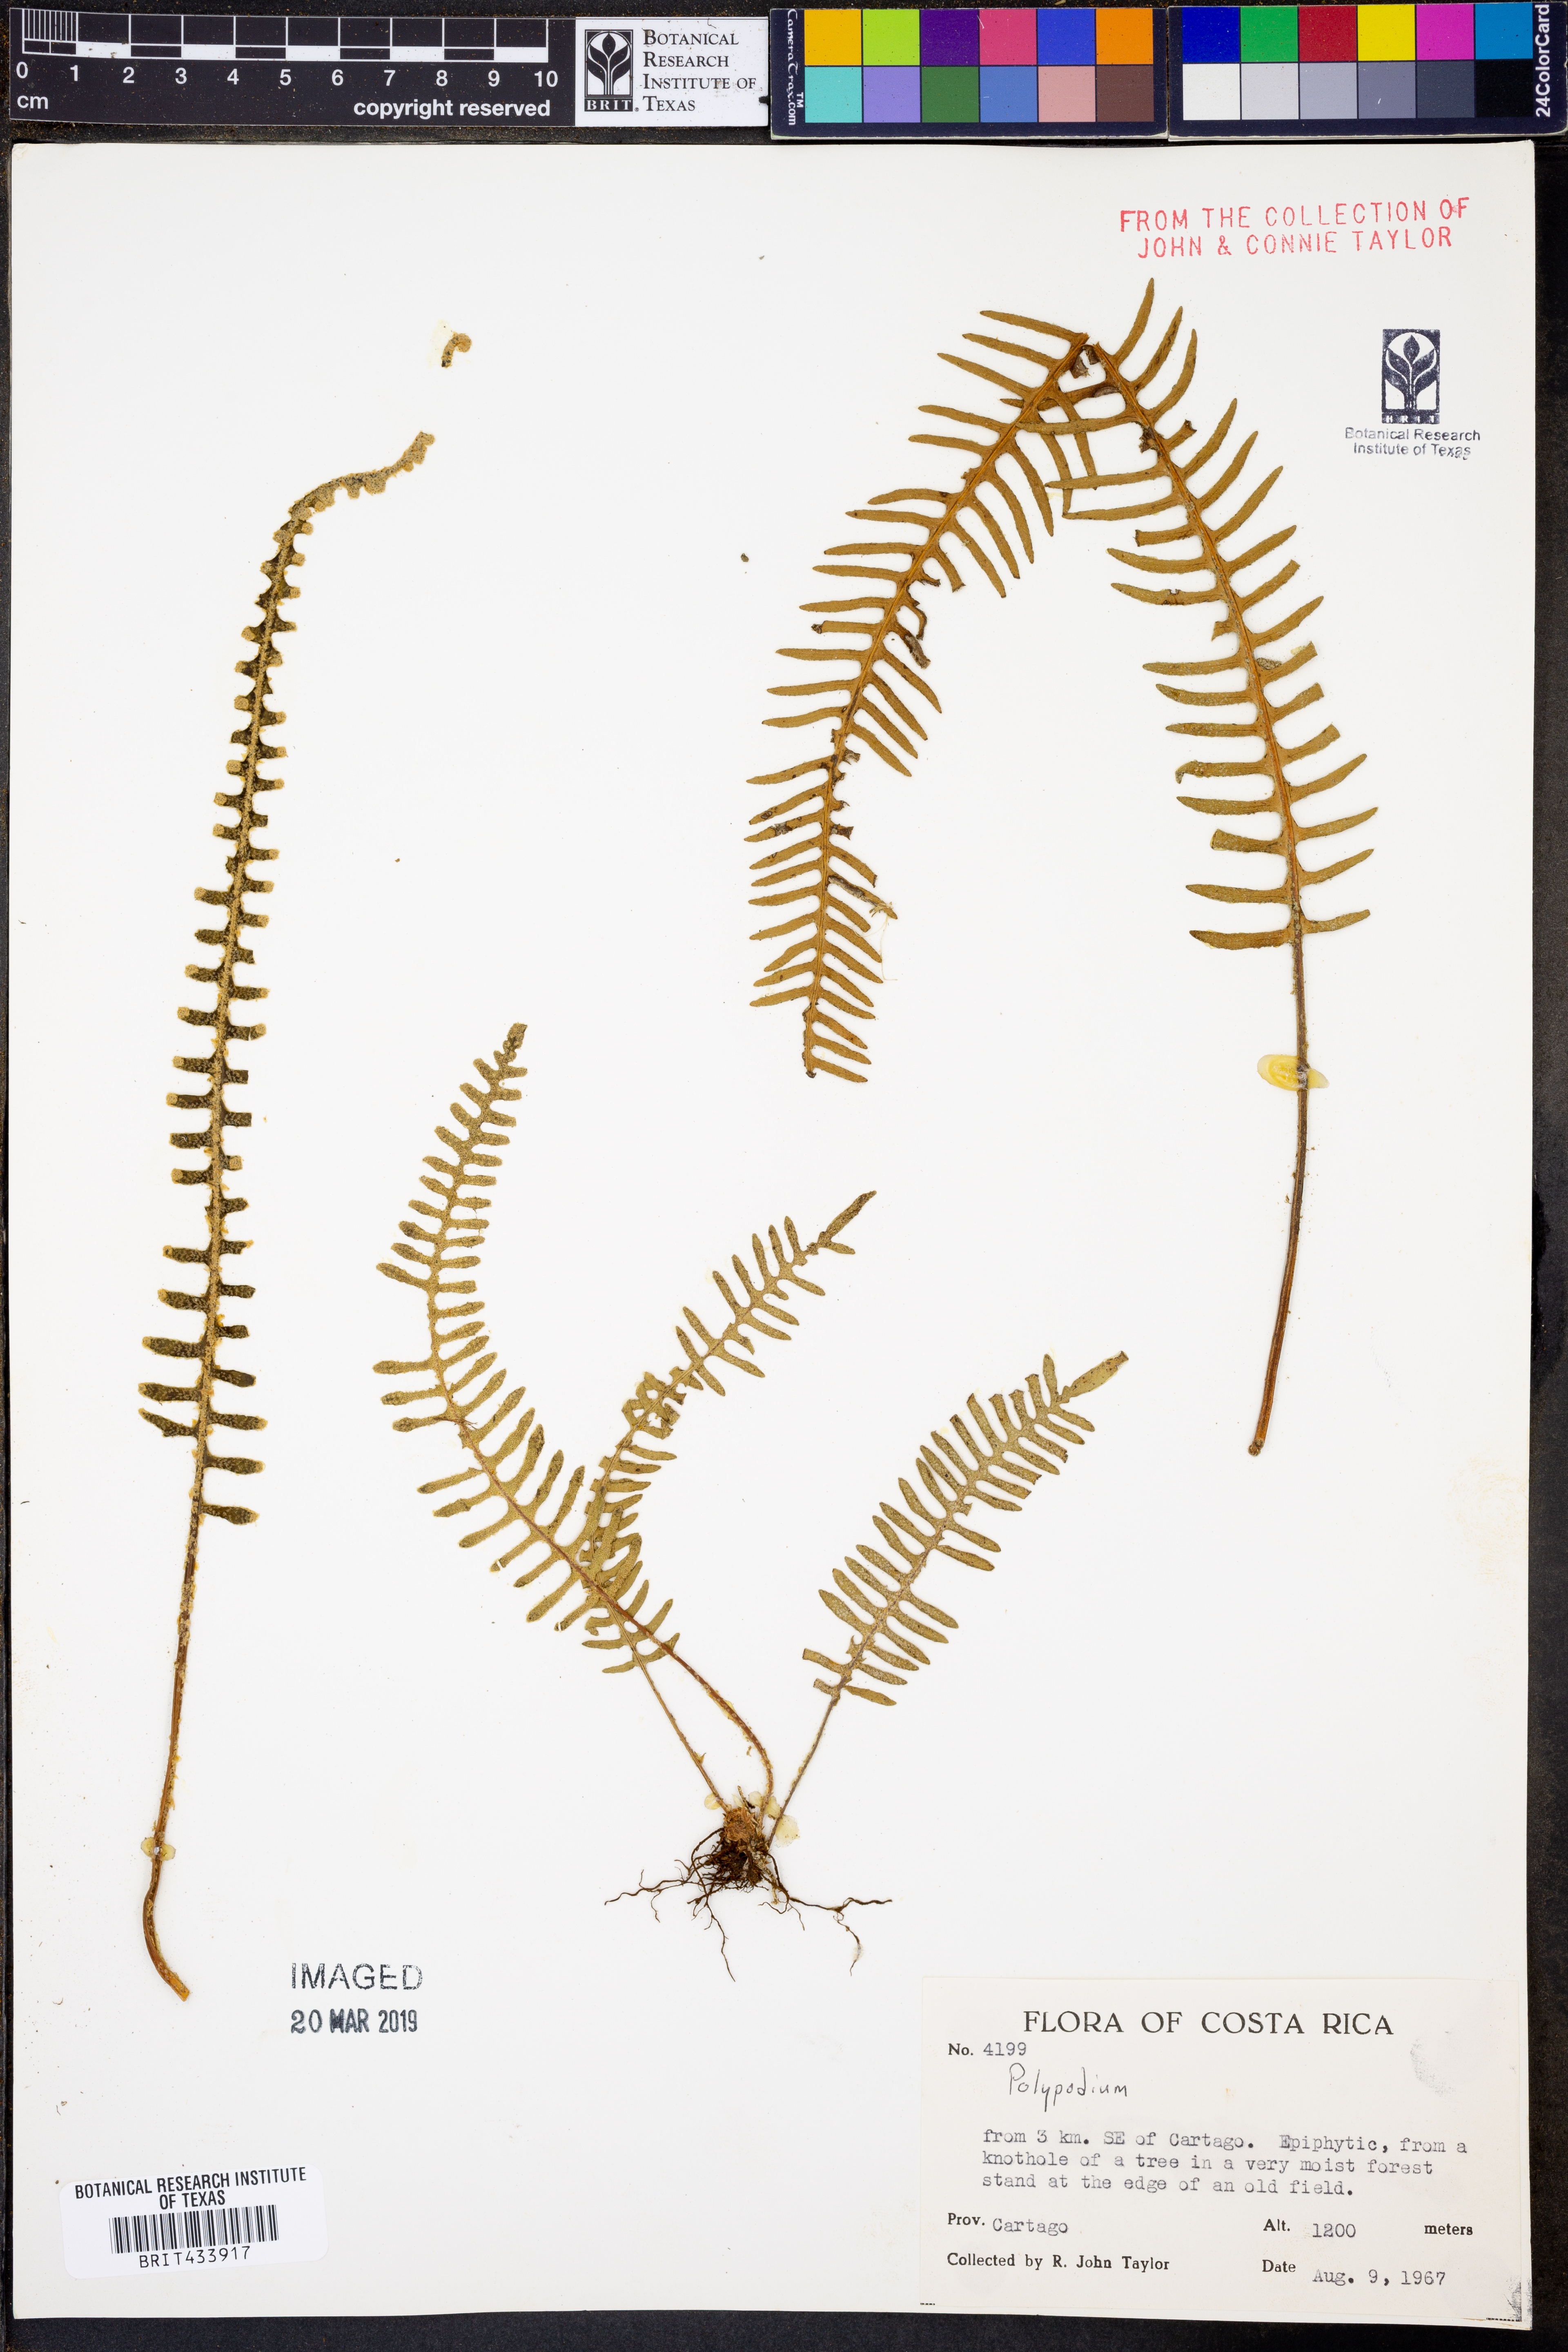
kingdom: Plantae
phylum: Tracheophyta
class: Polypodiopsida
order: Polypodiales
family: Polypodiaceae
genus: Polypodium
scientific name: Polypodium
